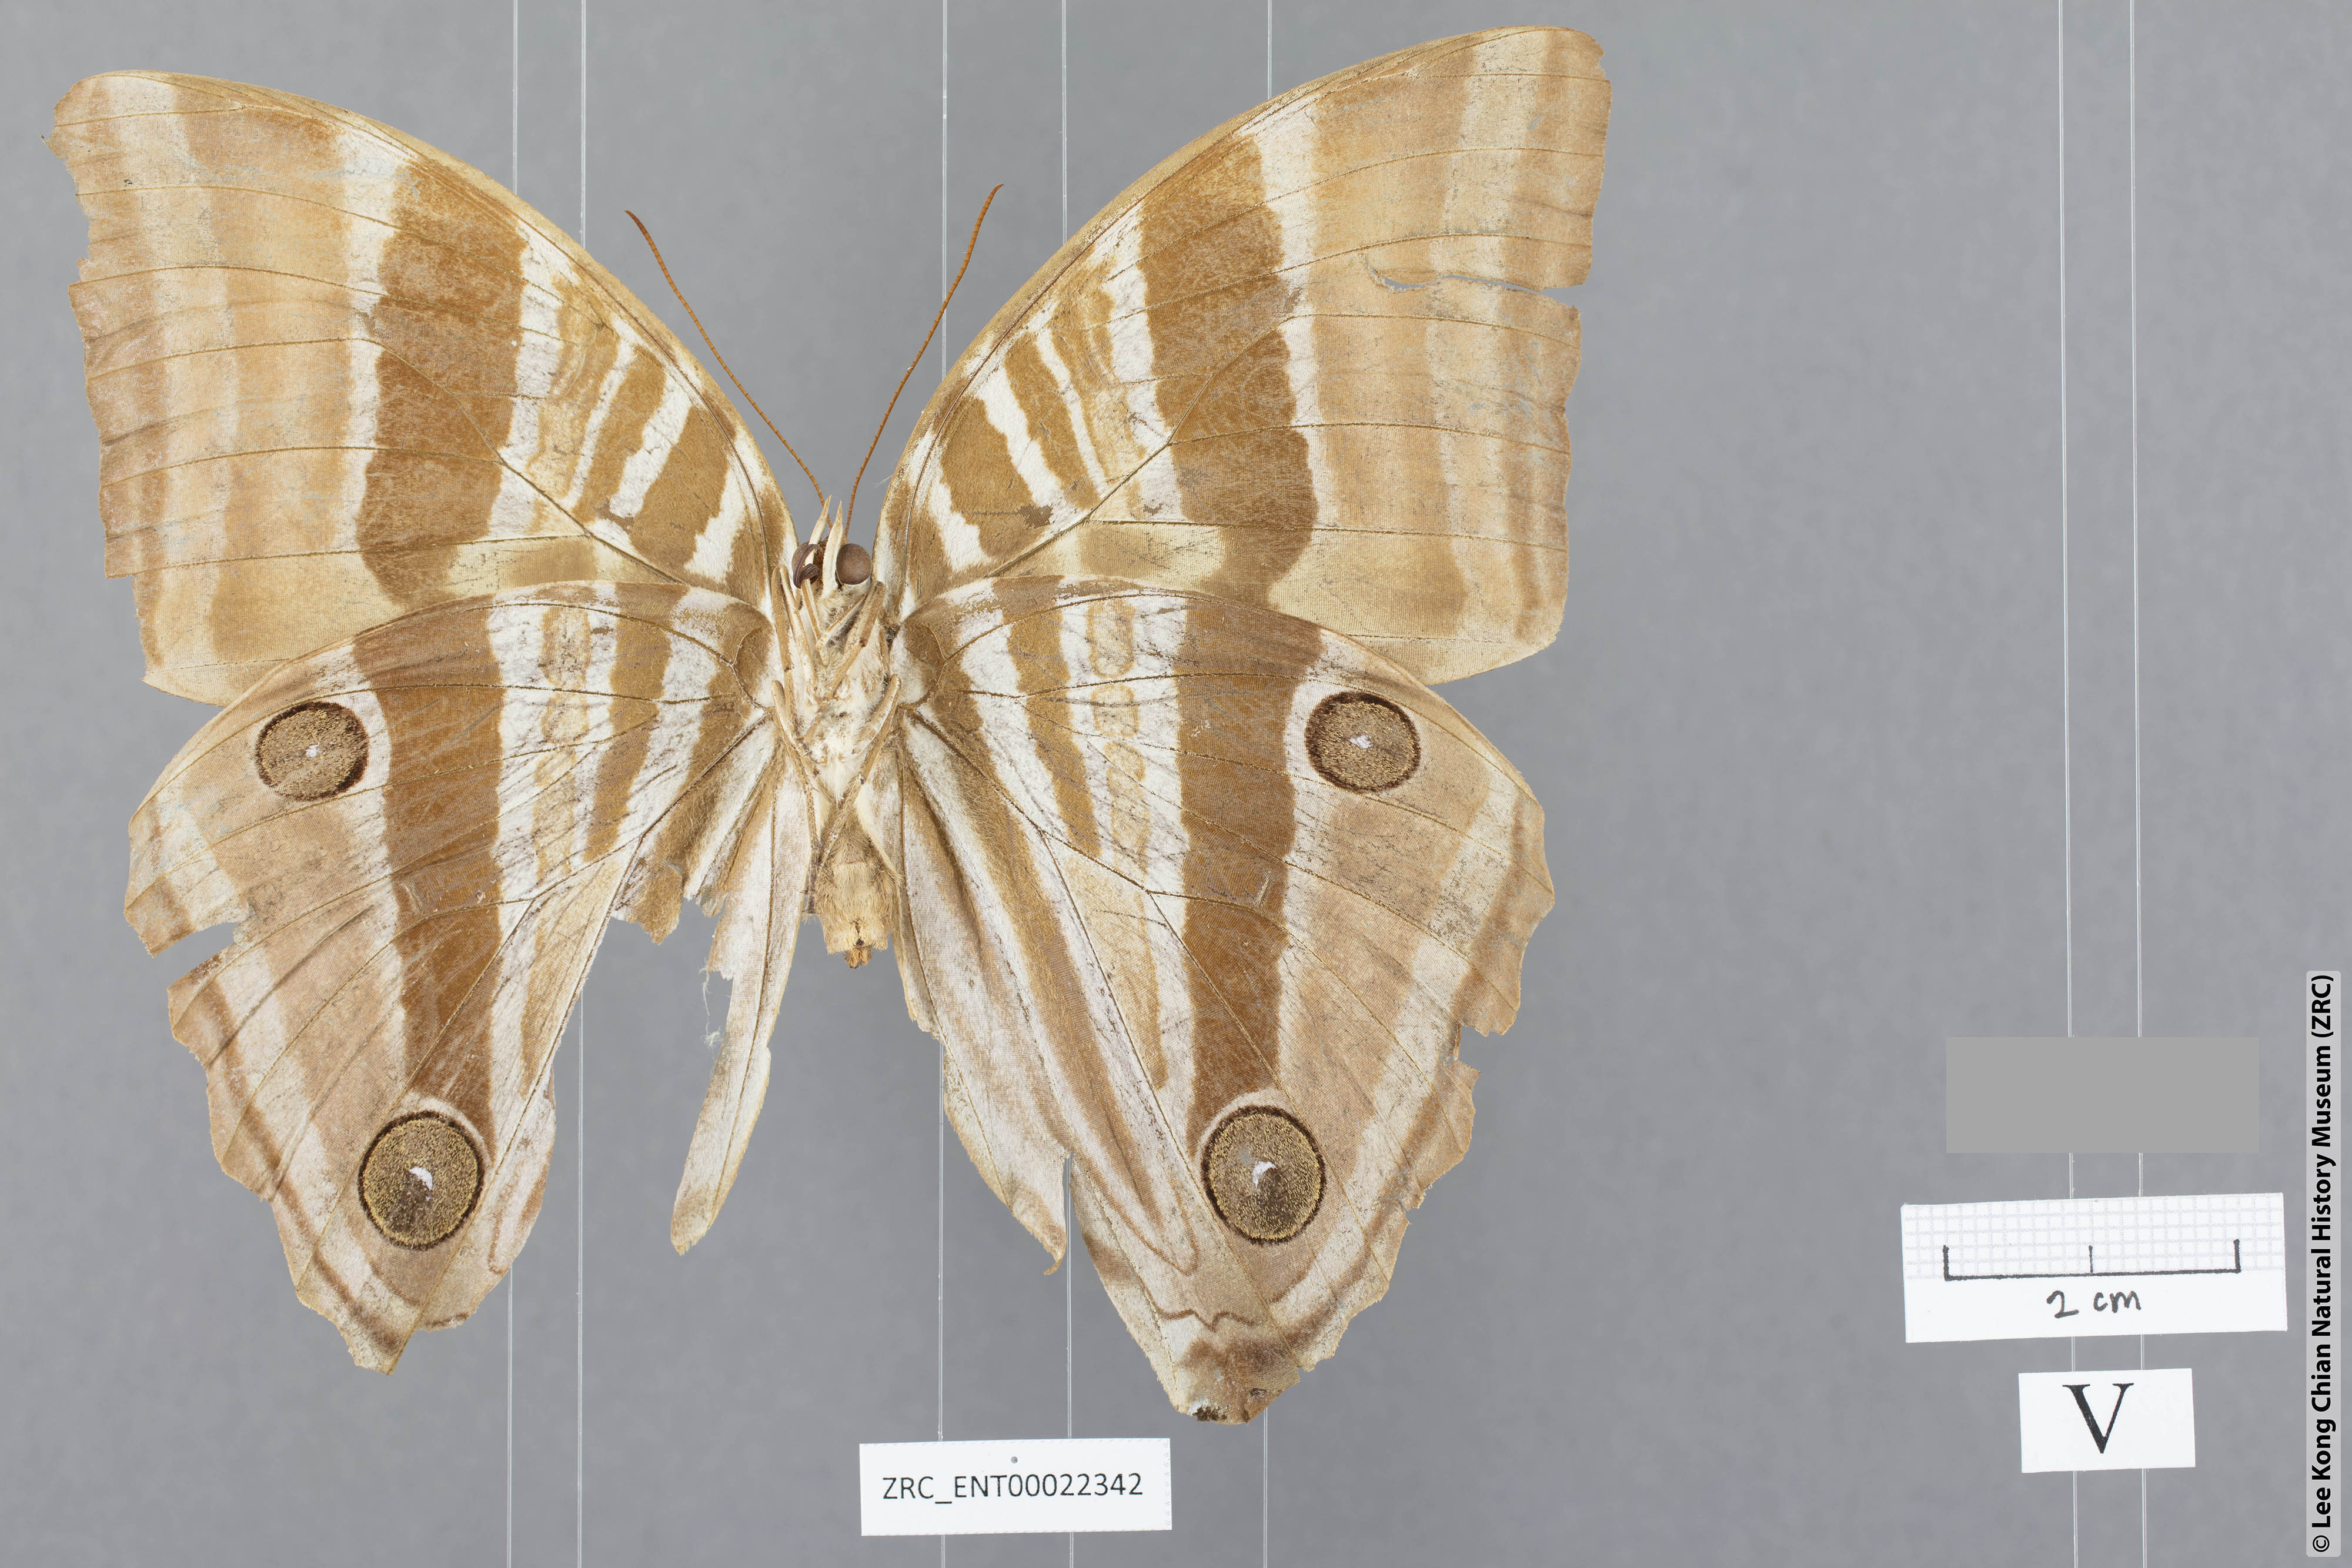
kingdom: Animalia
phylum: Arthropoda
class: Insecta
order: Lepidoptera
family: Nymphalidae
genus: Amathusia
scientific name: Amathusia perakana
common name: Perak palm king
